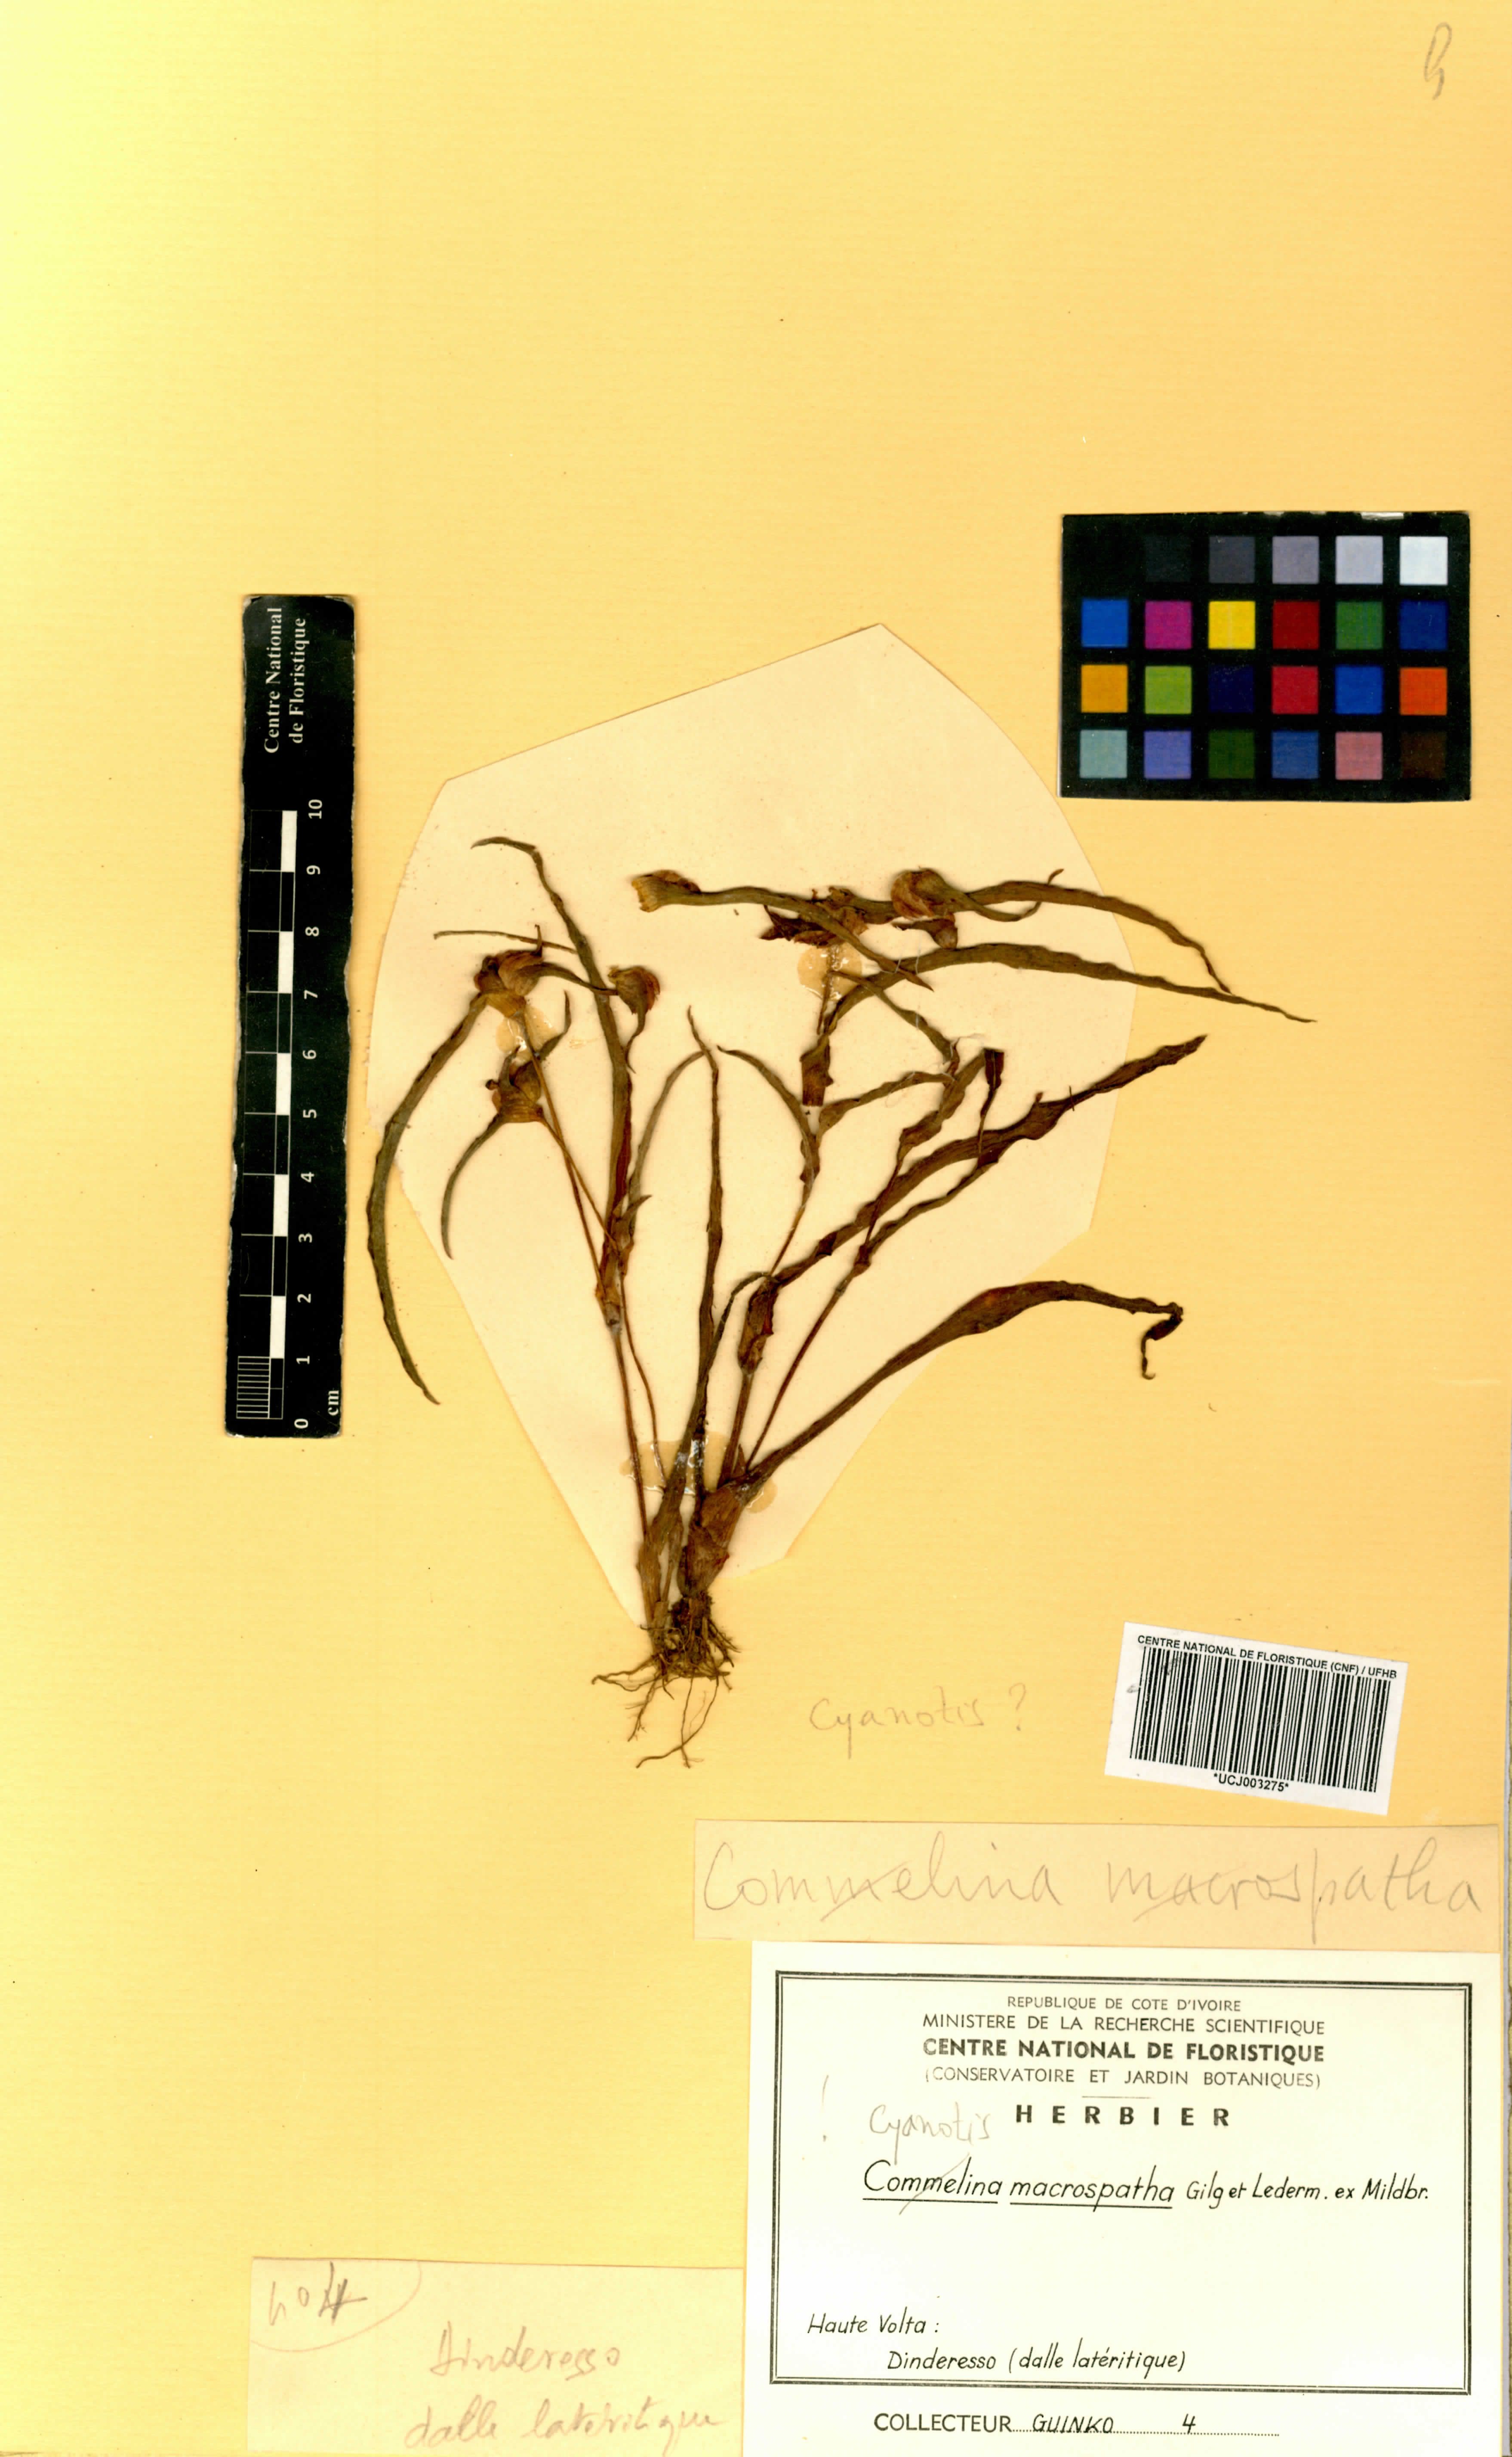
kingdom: Plantae
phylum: Tracheophyta
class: Liliopsida
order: Commelinales
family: Commelinaceae
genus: Commelina
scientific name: Commelina macrospatha
